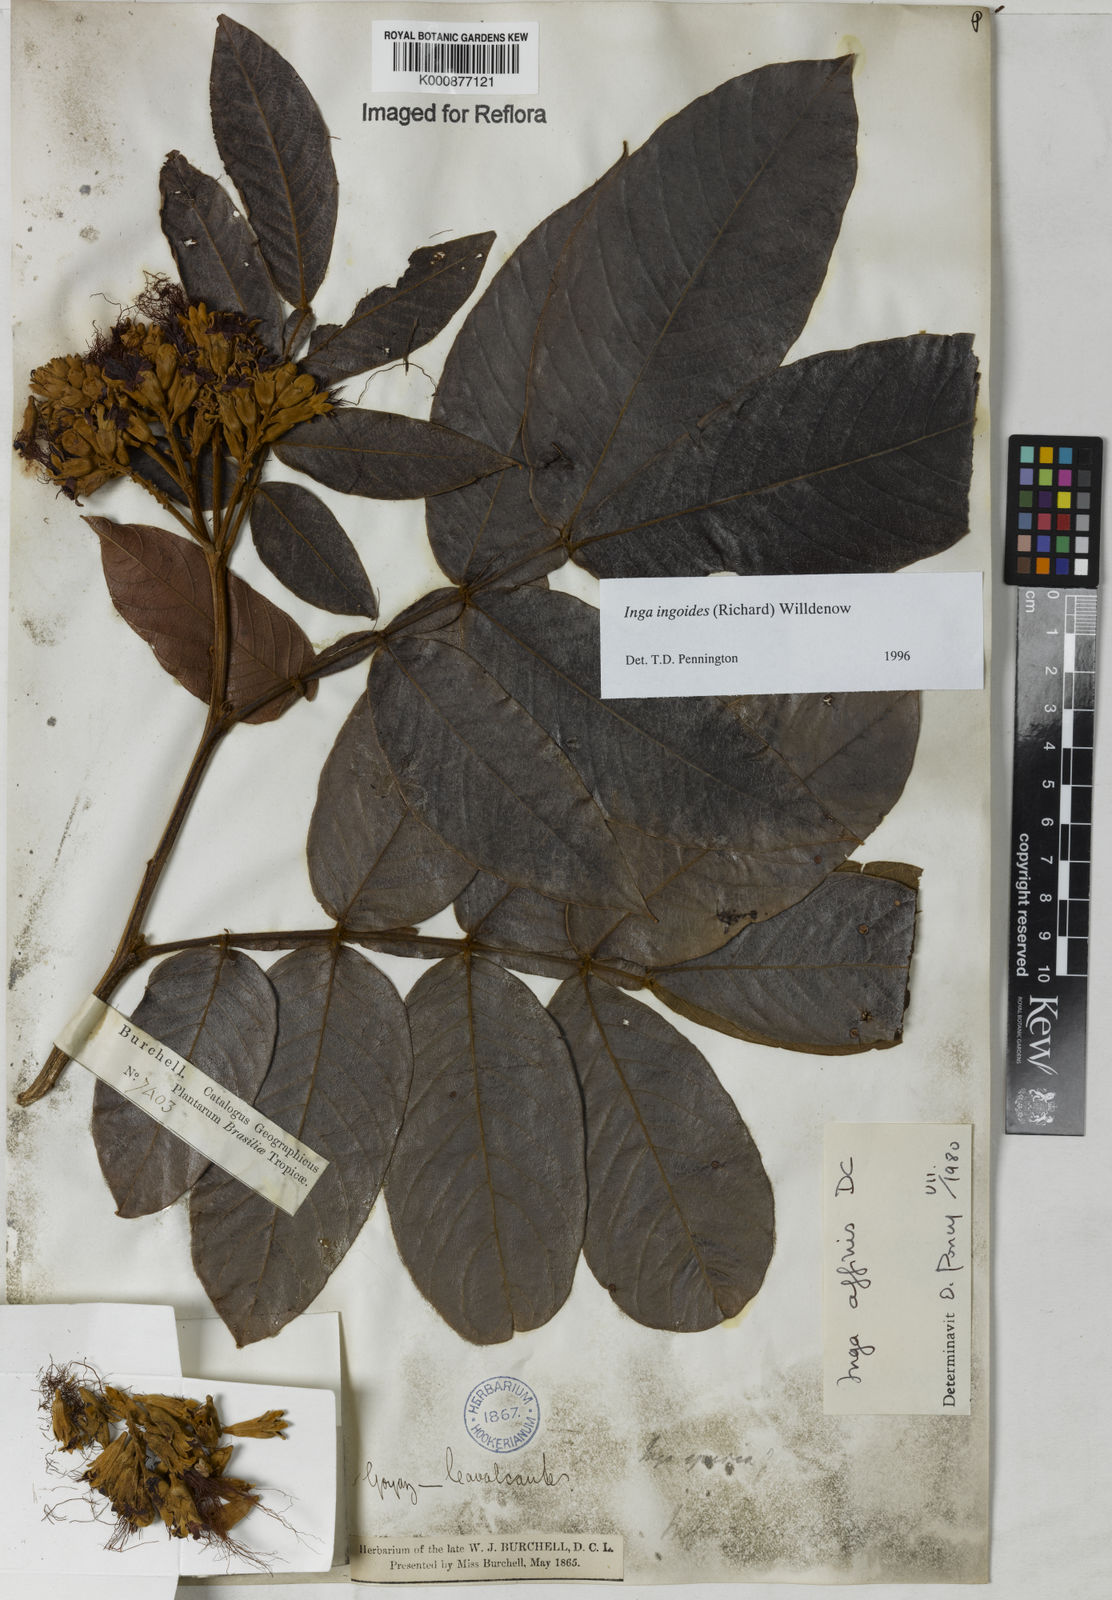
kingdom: Plantae
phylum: Tracheophyta
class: Magnoliopsida
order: Fabales
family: Fabaceae
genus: Inga
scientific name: Inga ingoides
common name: Spanish ash
